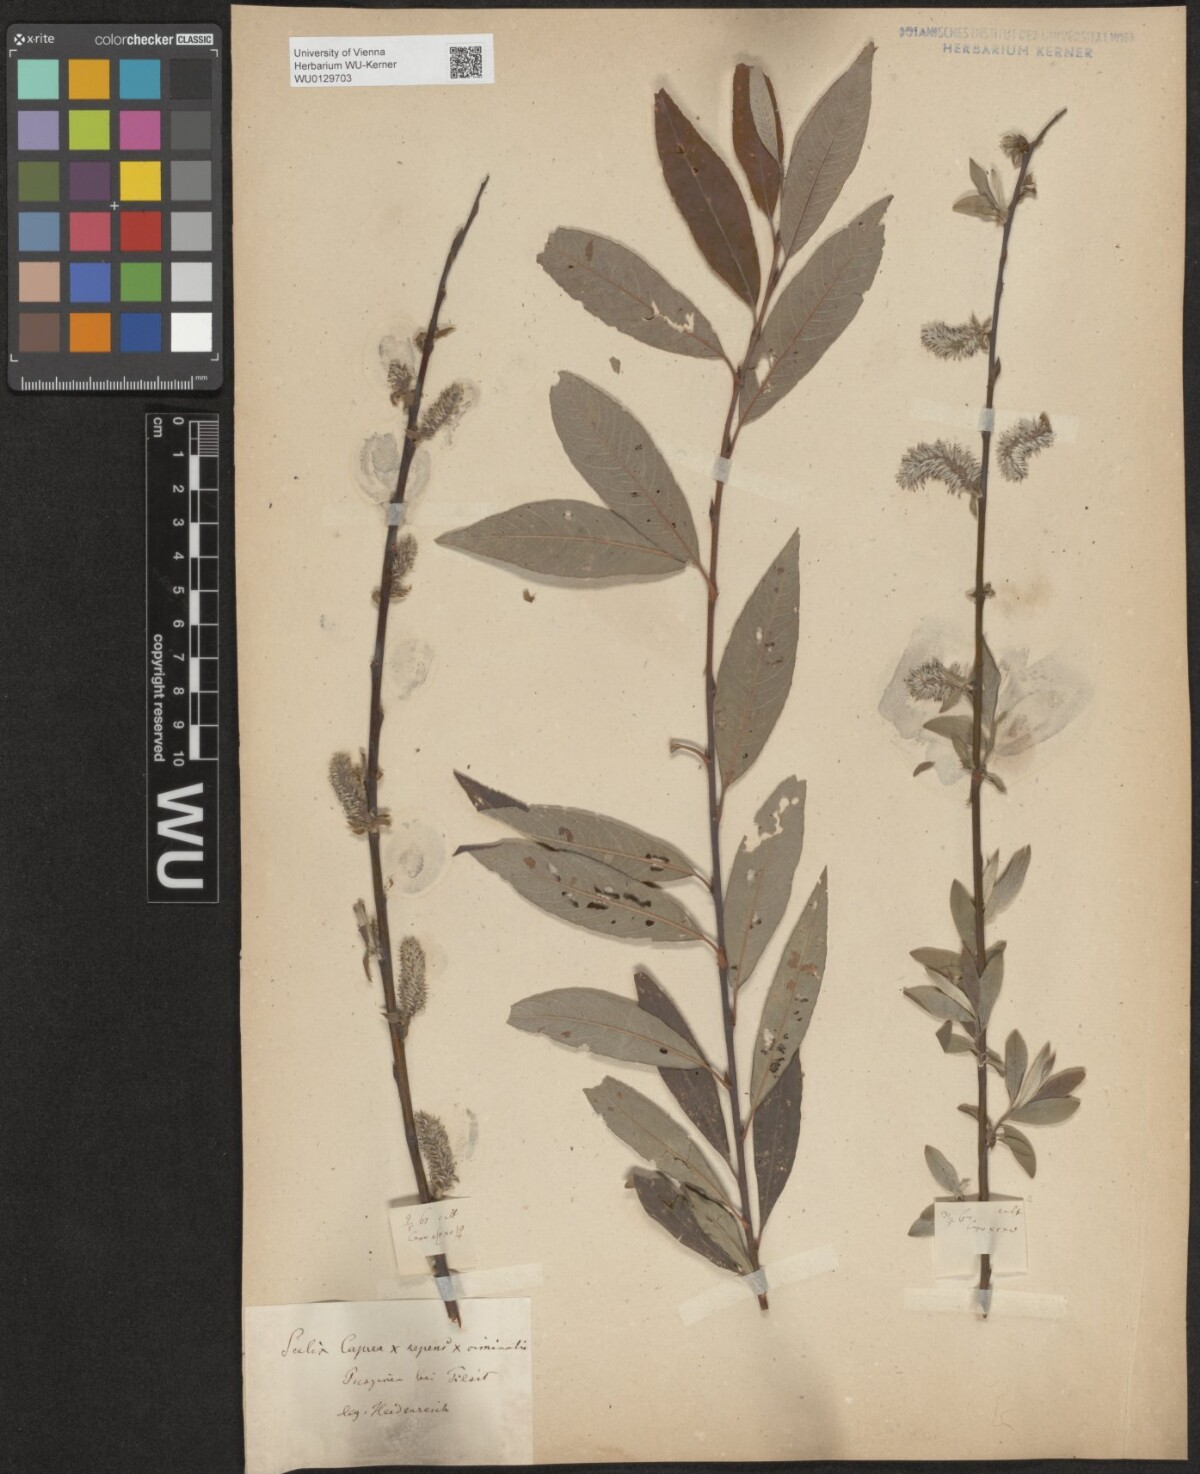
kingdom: Plantae
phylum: Tracheophyta
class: Magnoliopsida
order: Malpighiales
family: Salicaceae
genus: Salix
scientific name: Salix
